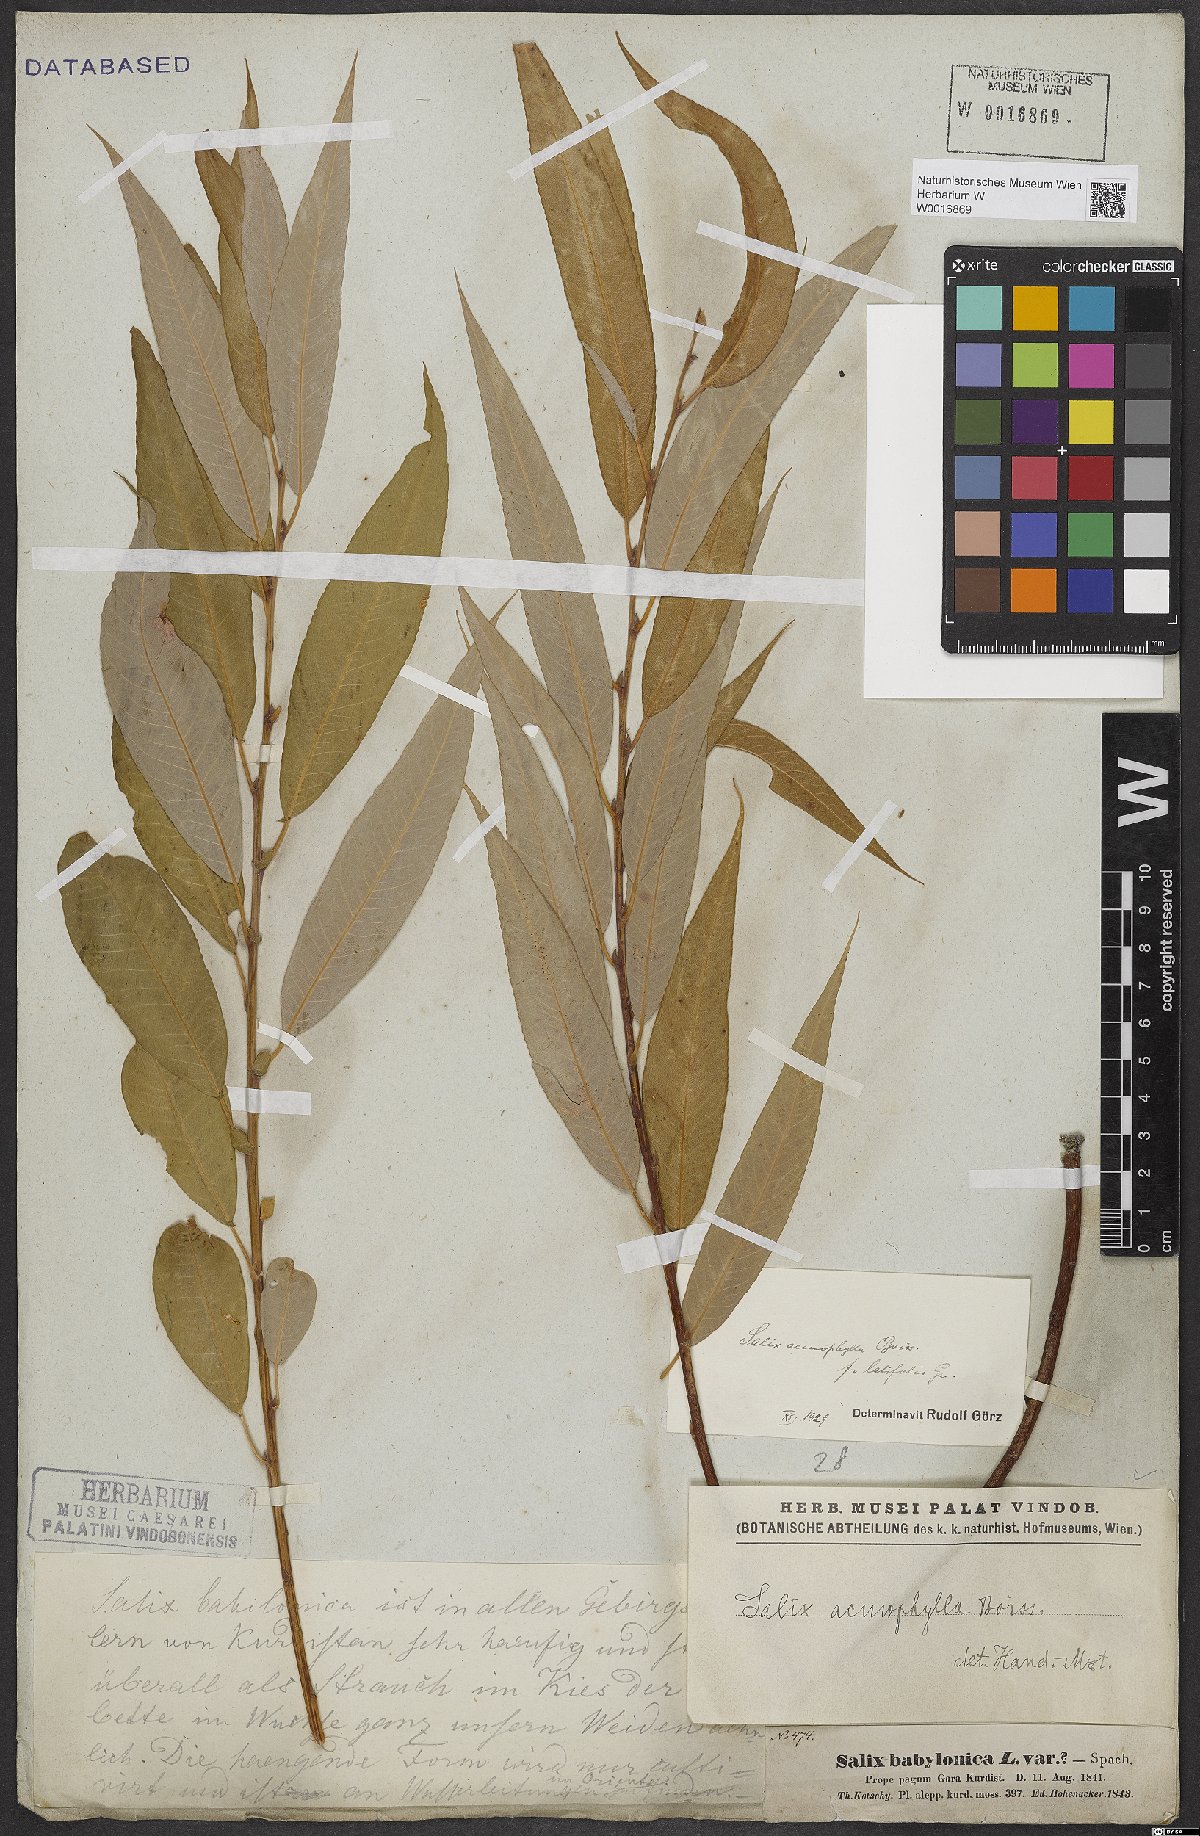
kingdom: Plantae
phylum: Tracheophyta
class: Magnoliopsida
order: Malpighiales
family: Salicaceae
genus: Salix
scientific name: Salix acmophylla
